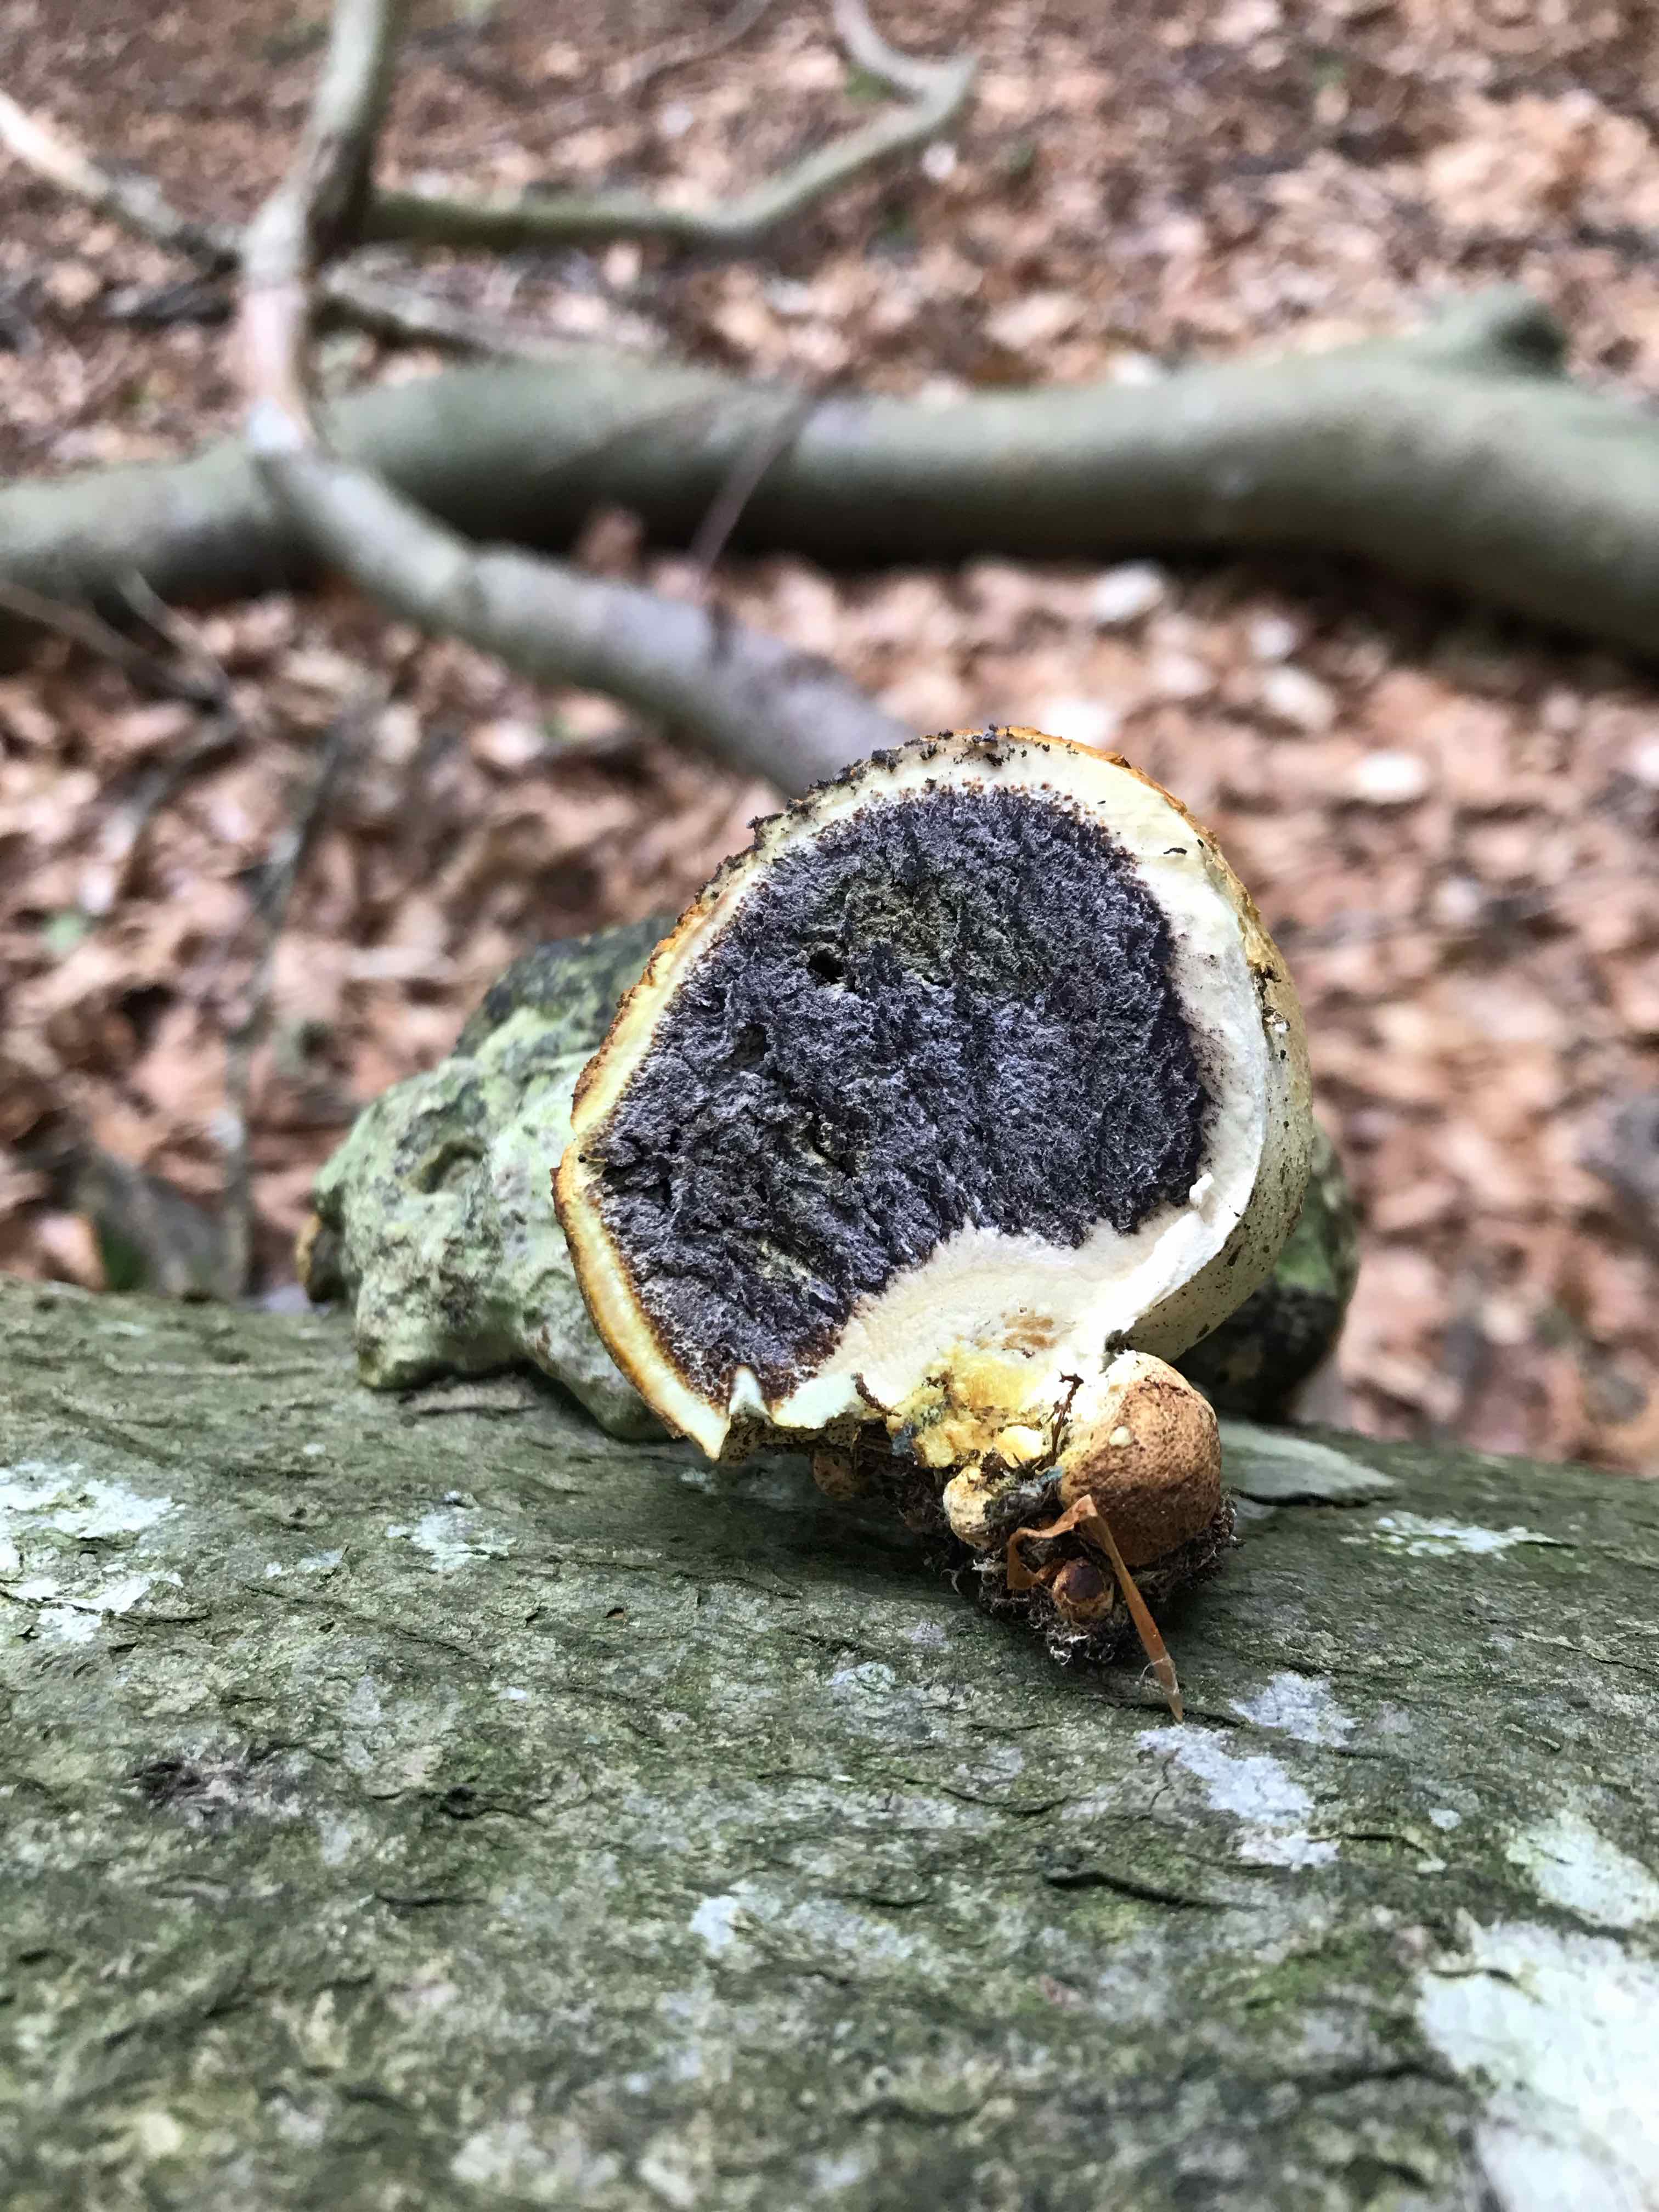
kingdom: Fungi
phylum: Basidiomycota
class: Agaricomycetes
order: Boletales
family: Sclerodermataceae
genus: Scleroderma
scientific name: Scleroderma citrinum
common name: almindelig bruskbold
